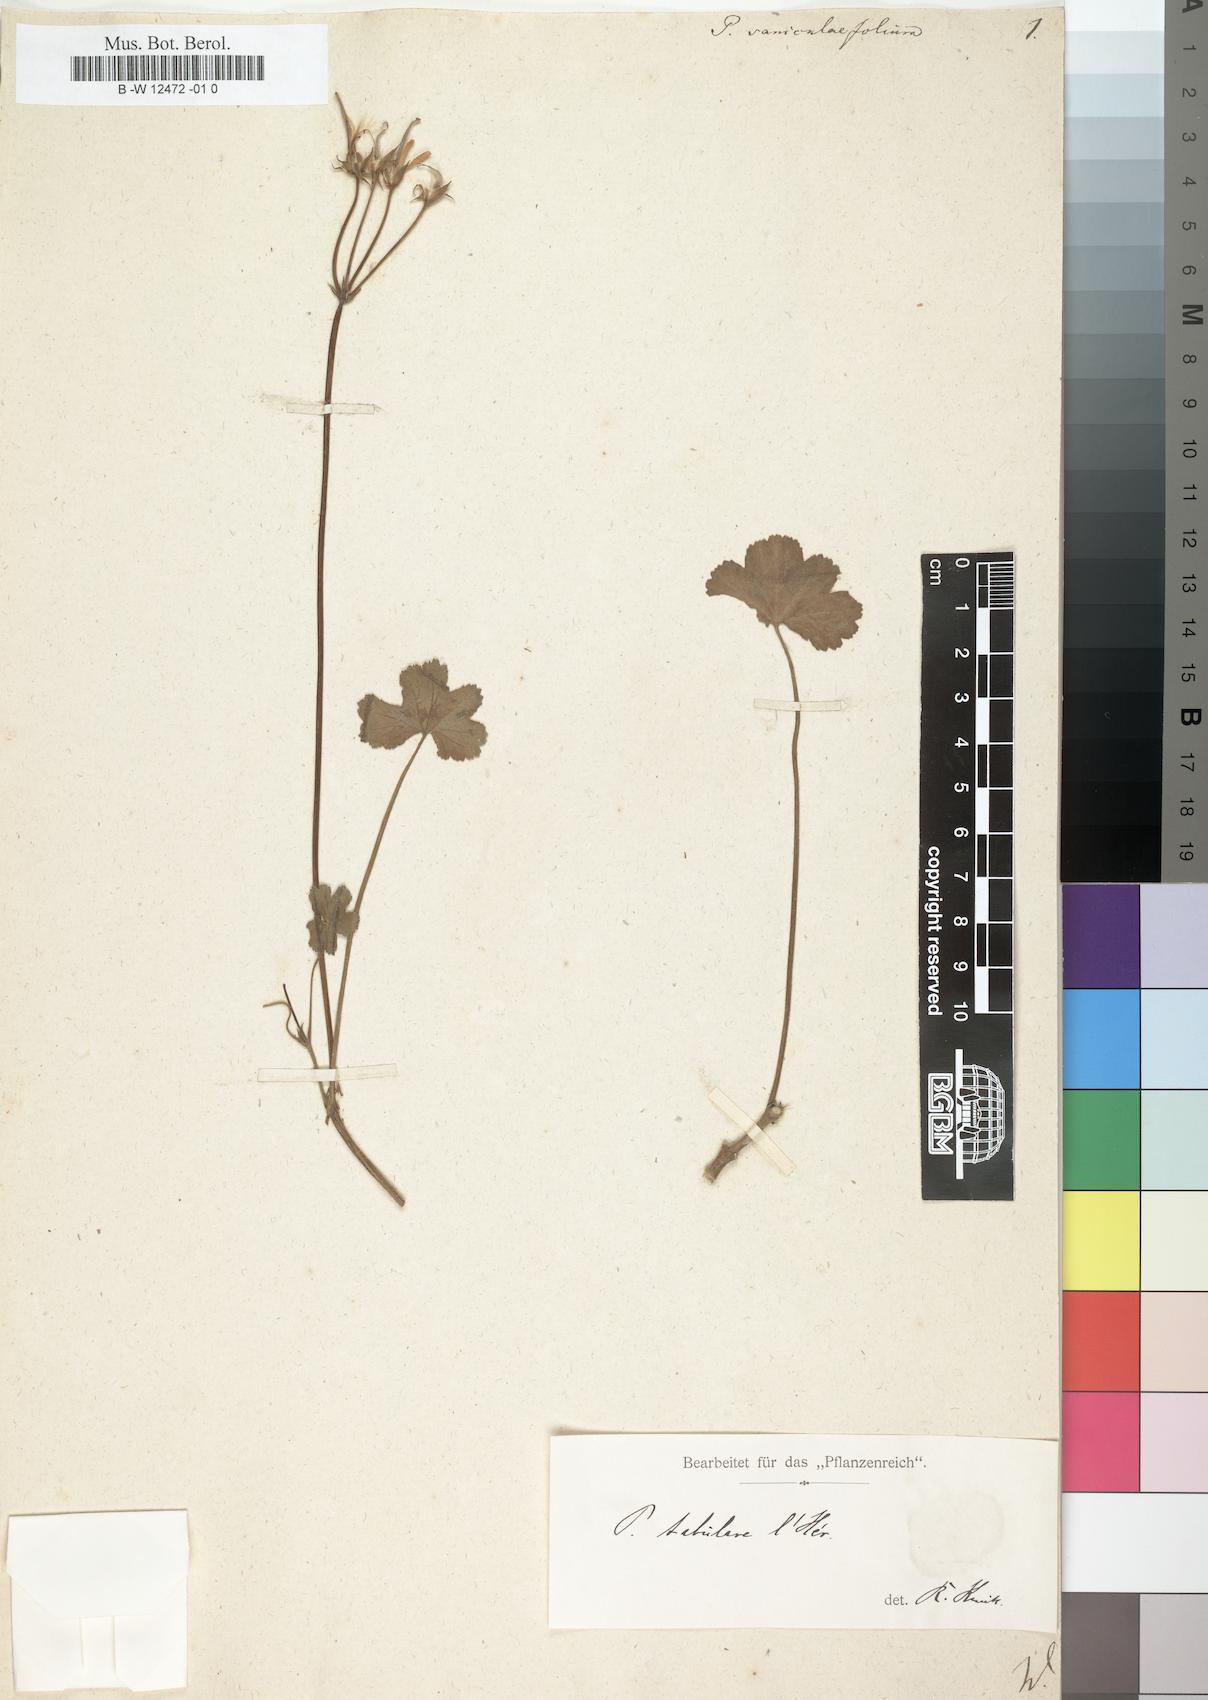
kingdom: Plantae
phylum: Tracheophyta
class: Magnoliopsida
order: Geraniales
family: Geraniaceae
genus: Pelargonium
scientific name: Pelargonium tabulare
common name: Table mountain pelargonium
